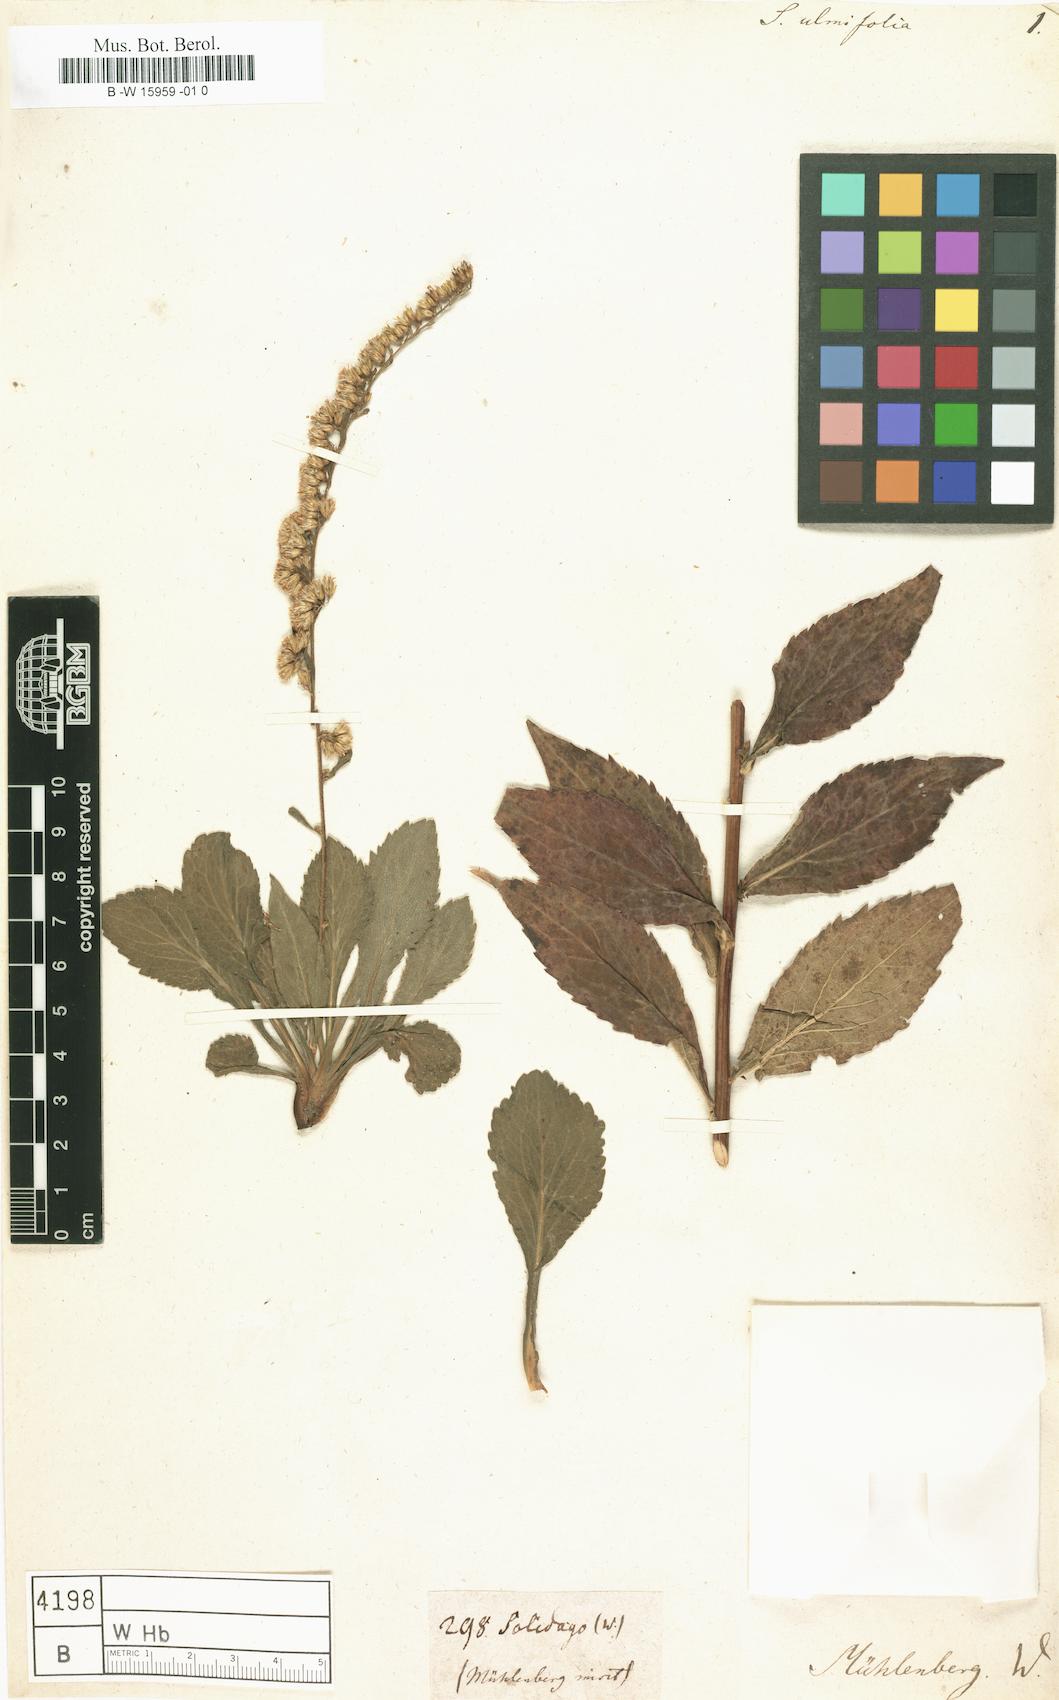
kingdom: Plantae
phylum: Tracheophyta
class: Magnoliopsida
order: Asterales
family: Asteraceae
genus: Solidago
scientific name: Solidago ulmifolia
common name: Elm-leaf goldenrod
